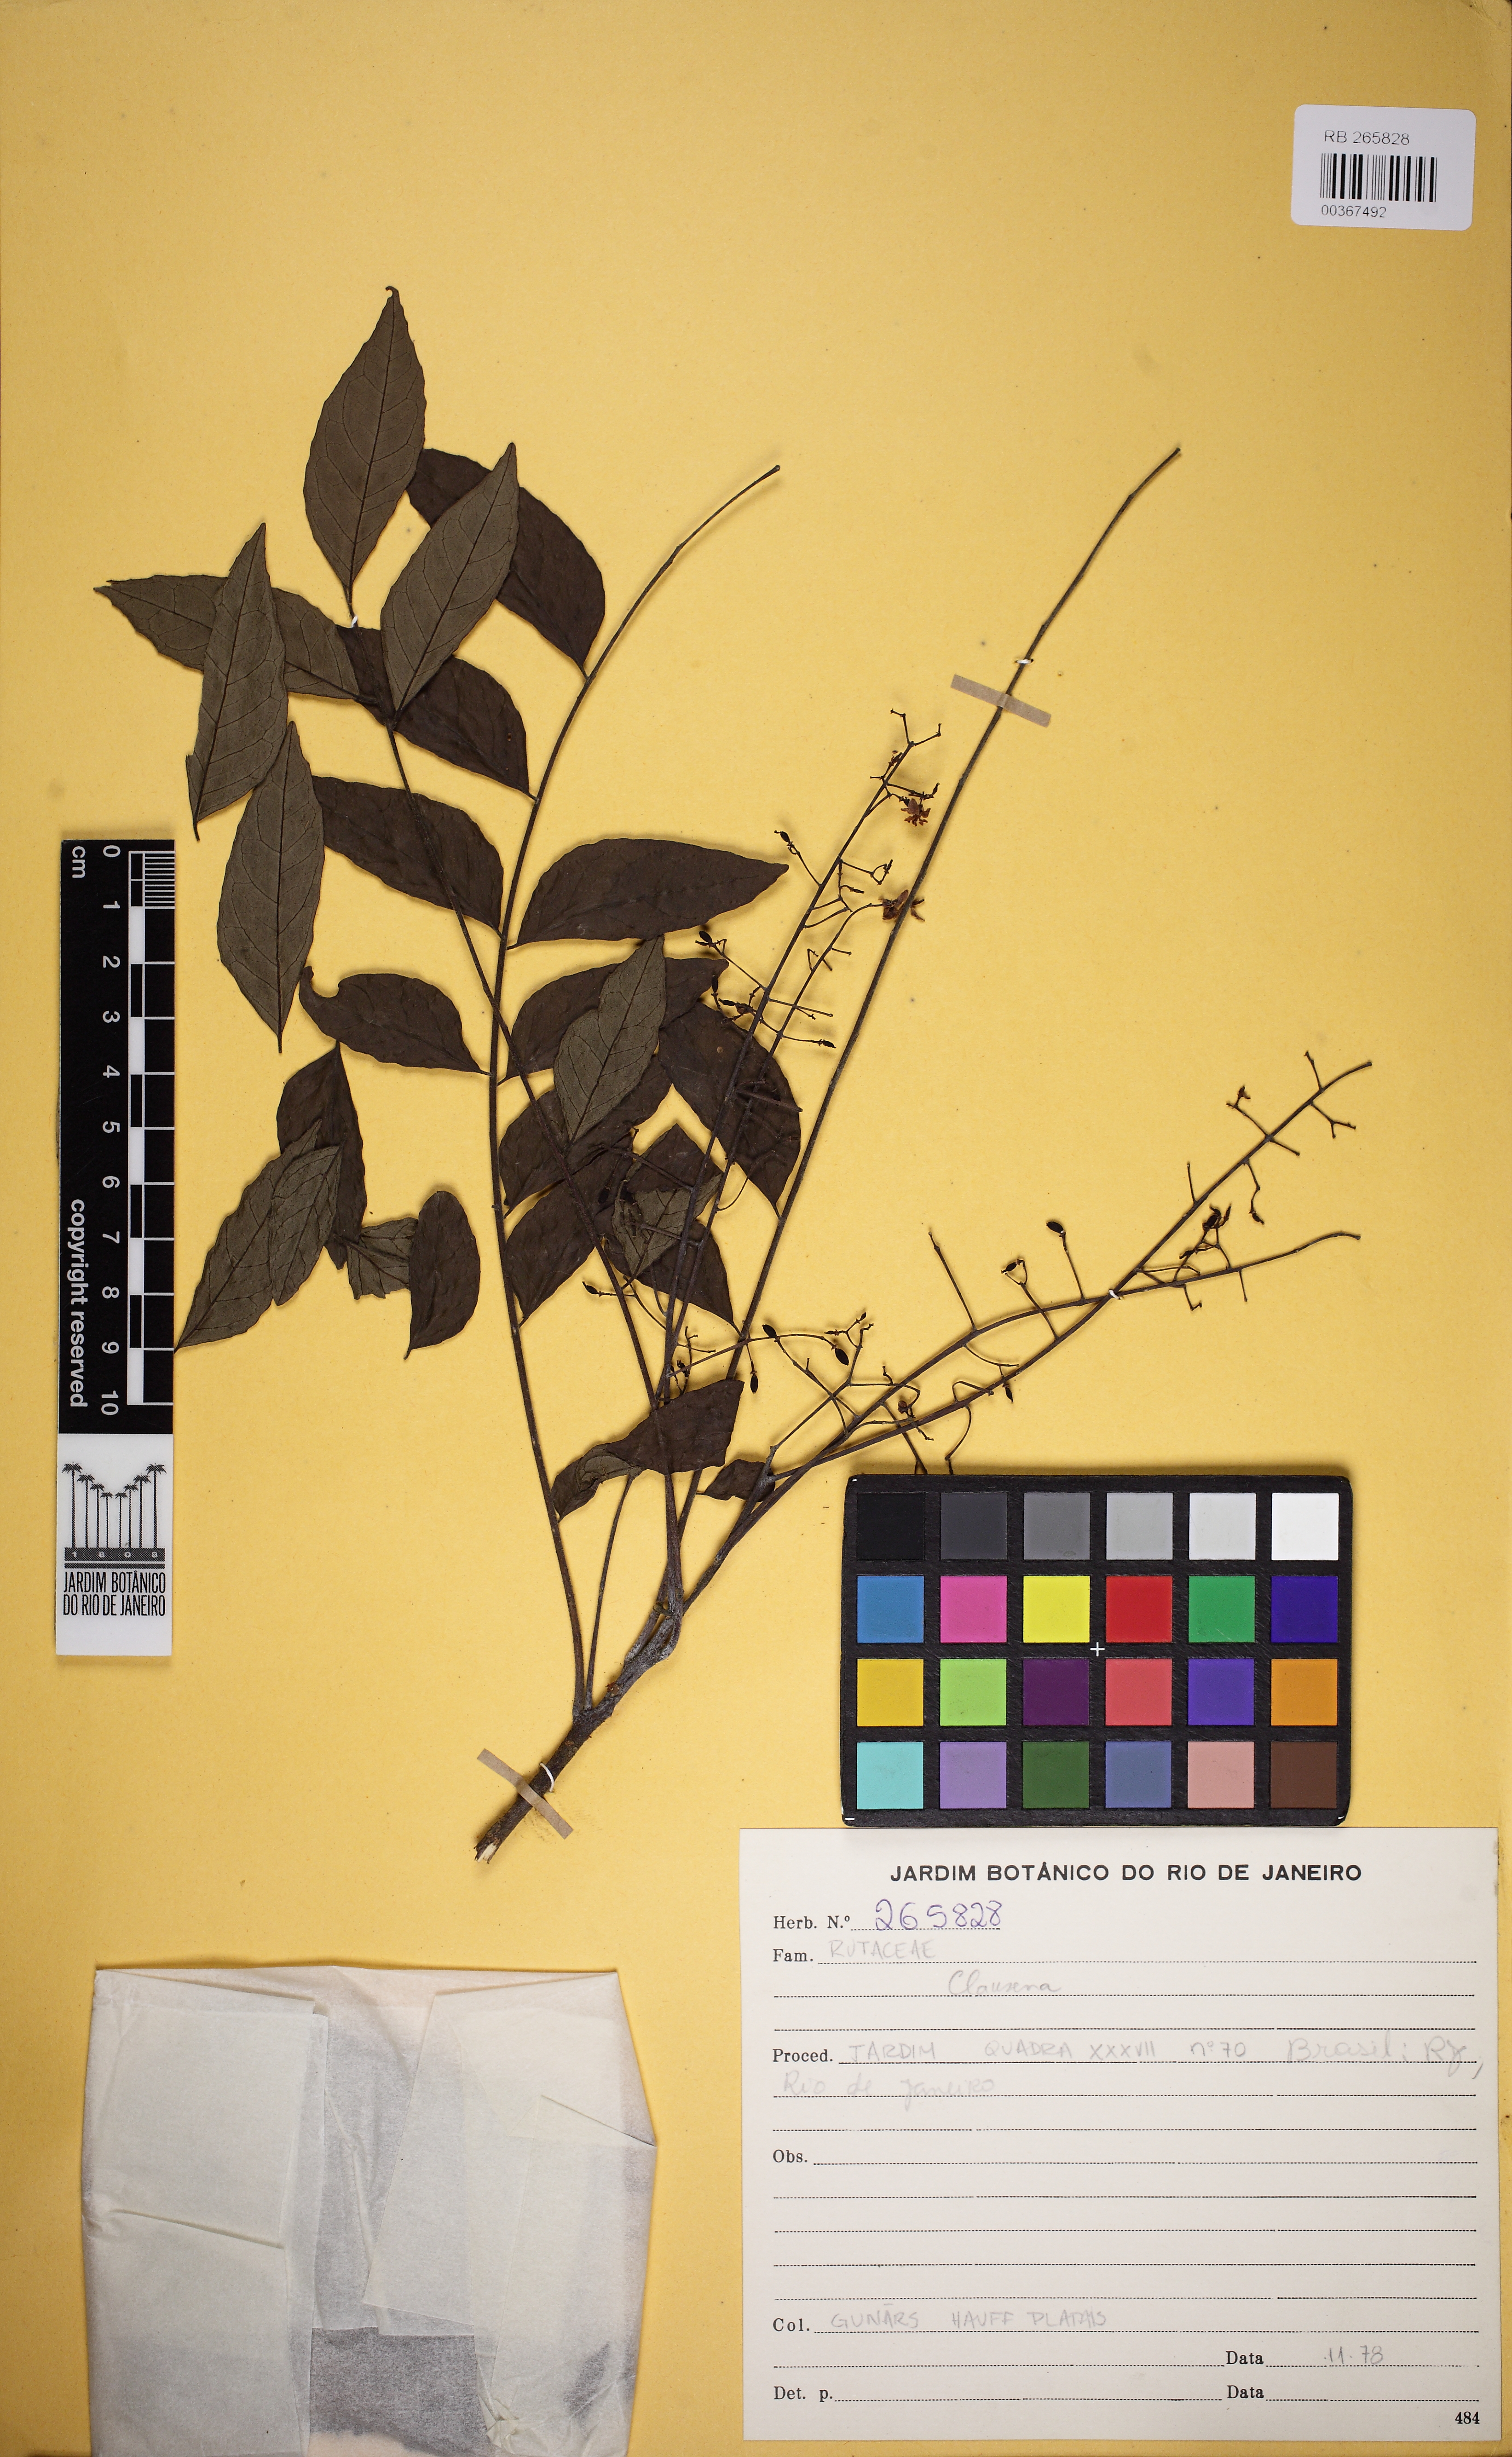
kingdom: Plantae
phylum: Tracheophyta
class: Magnoliopsida
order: Sapindales
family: Rutaceae
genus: Clausena
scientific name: Clausena
